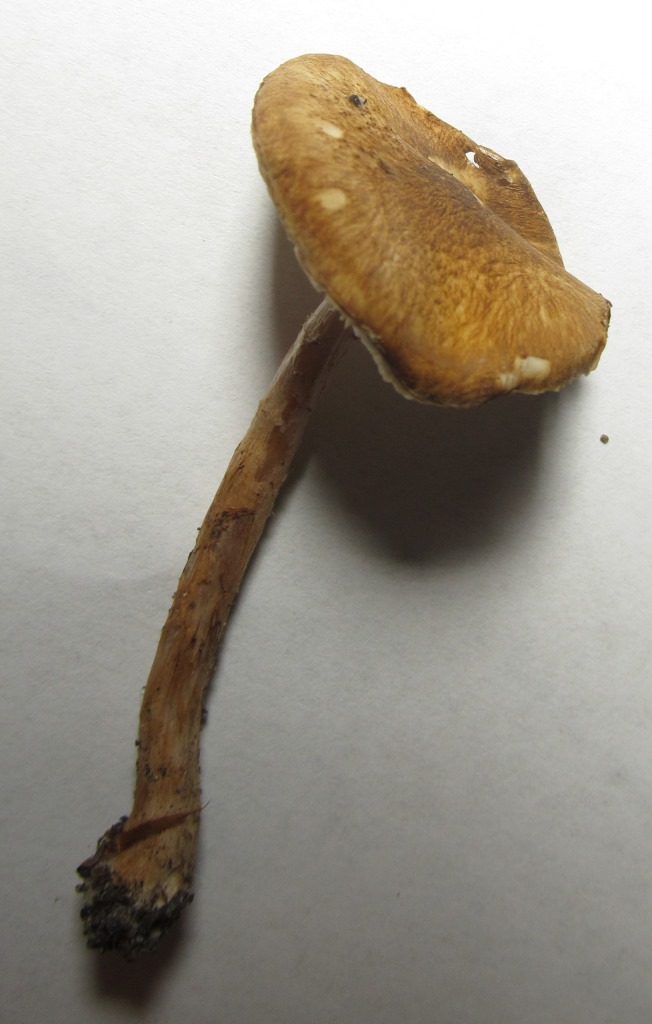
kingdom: Fungi
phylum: Basidiomycota
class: Agaricomycetes
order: Agaricales
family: Agaricaceae
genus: Leucocoprinus
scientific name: Leucocoprinus straminellus
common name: rustbrun parasolhat
